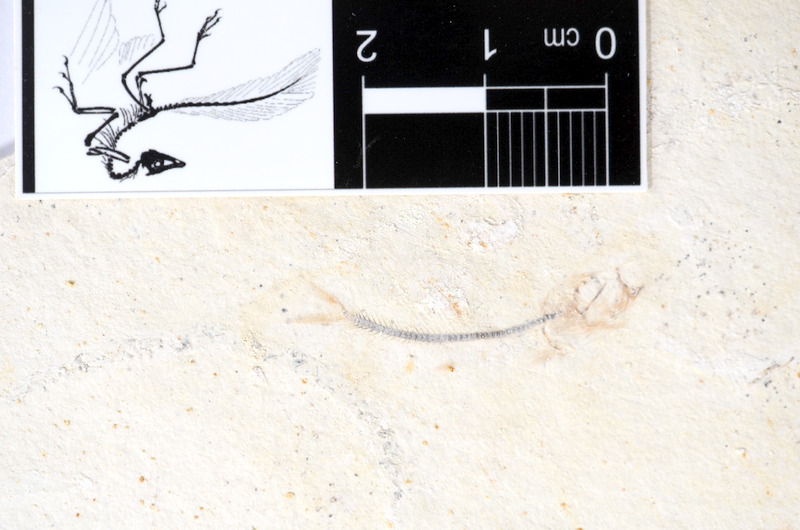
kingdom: Animalia
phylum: Chordata
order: Salmoniformes
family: Orthogonikleithridae
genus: Orthogonikleithrus
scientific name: Orthogonikleithrus hoelli
